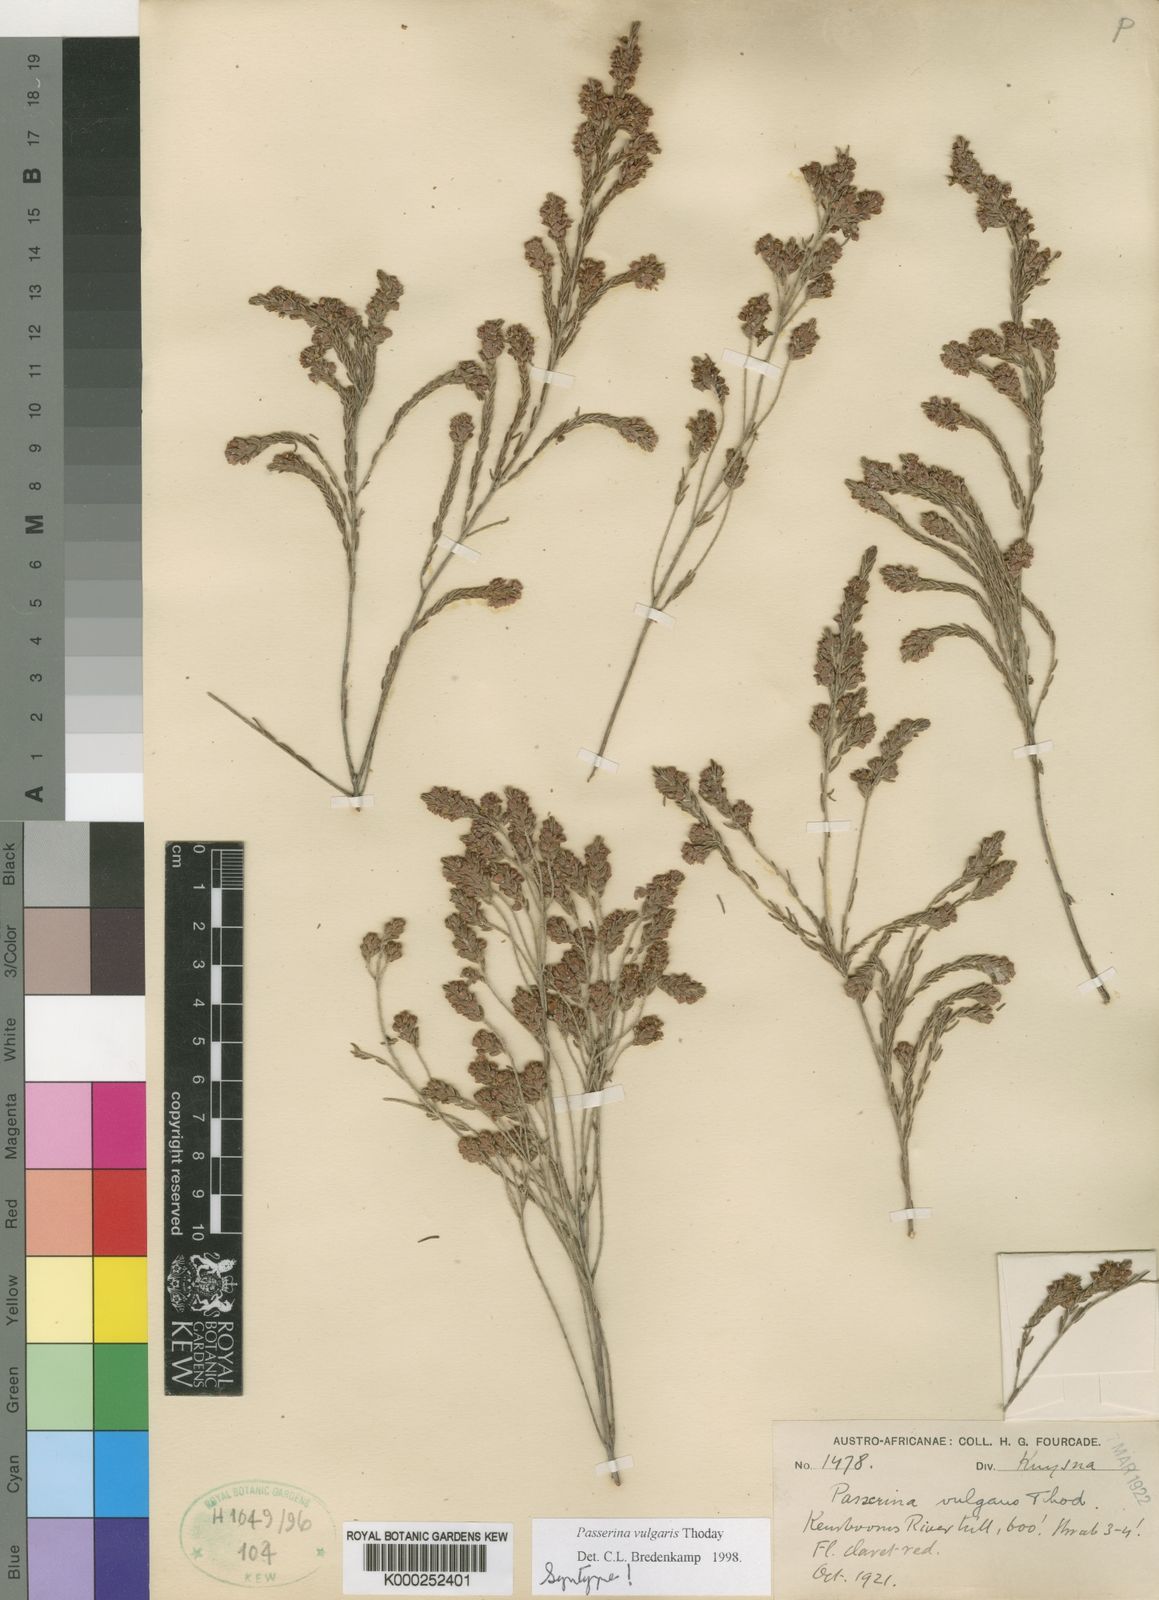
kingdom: Plantae
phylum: Tracheophyta
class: Magnoliopsida
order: Malvales
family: Thymelaeaceae
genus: Passerina
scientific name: Passerina corymbosa
